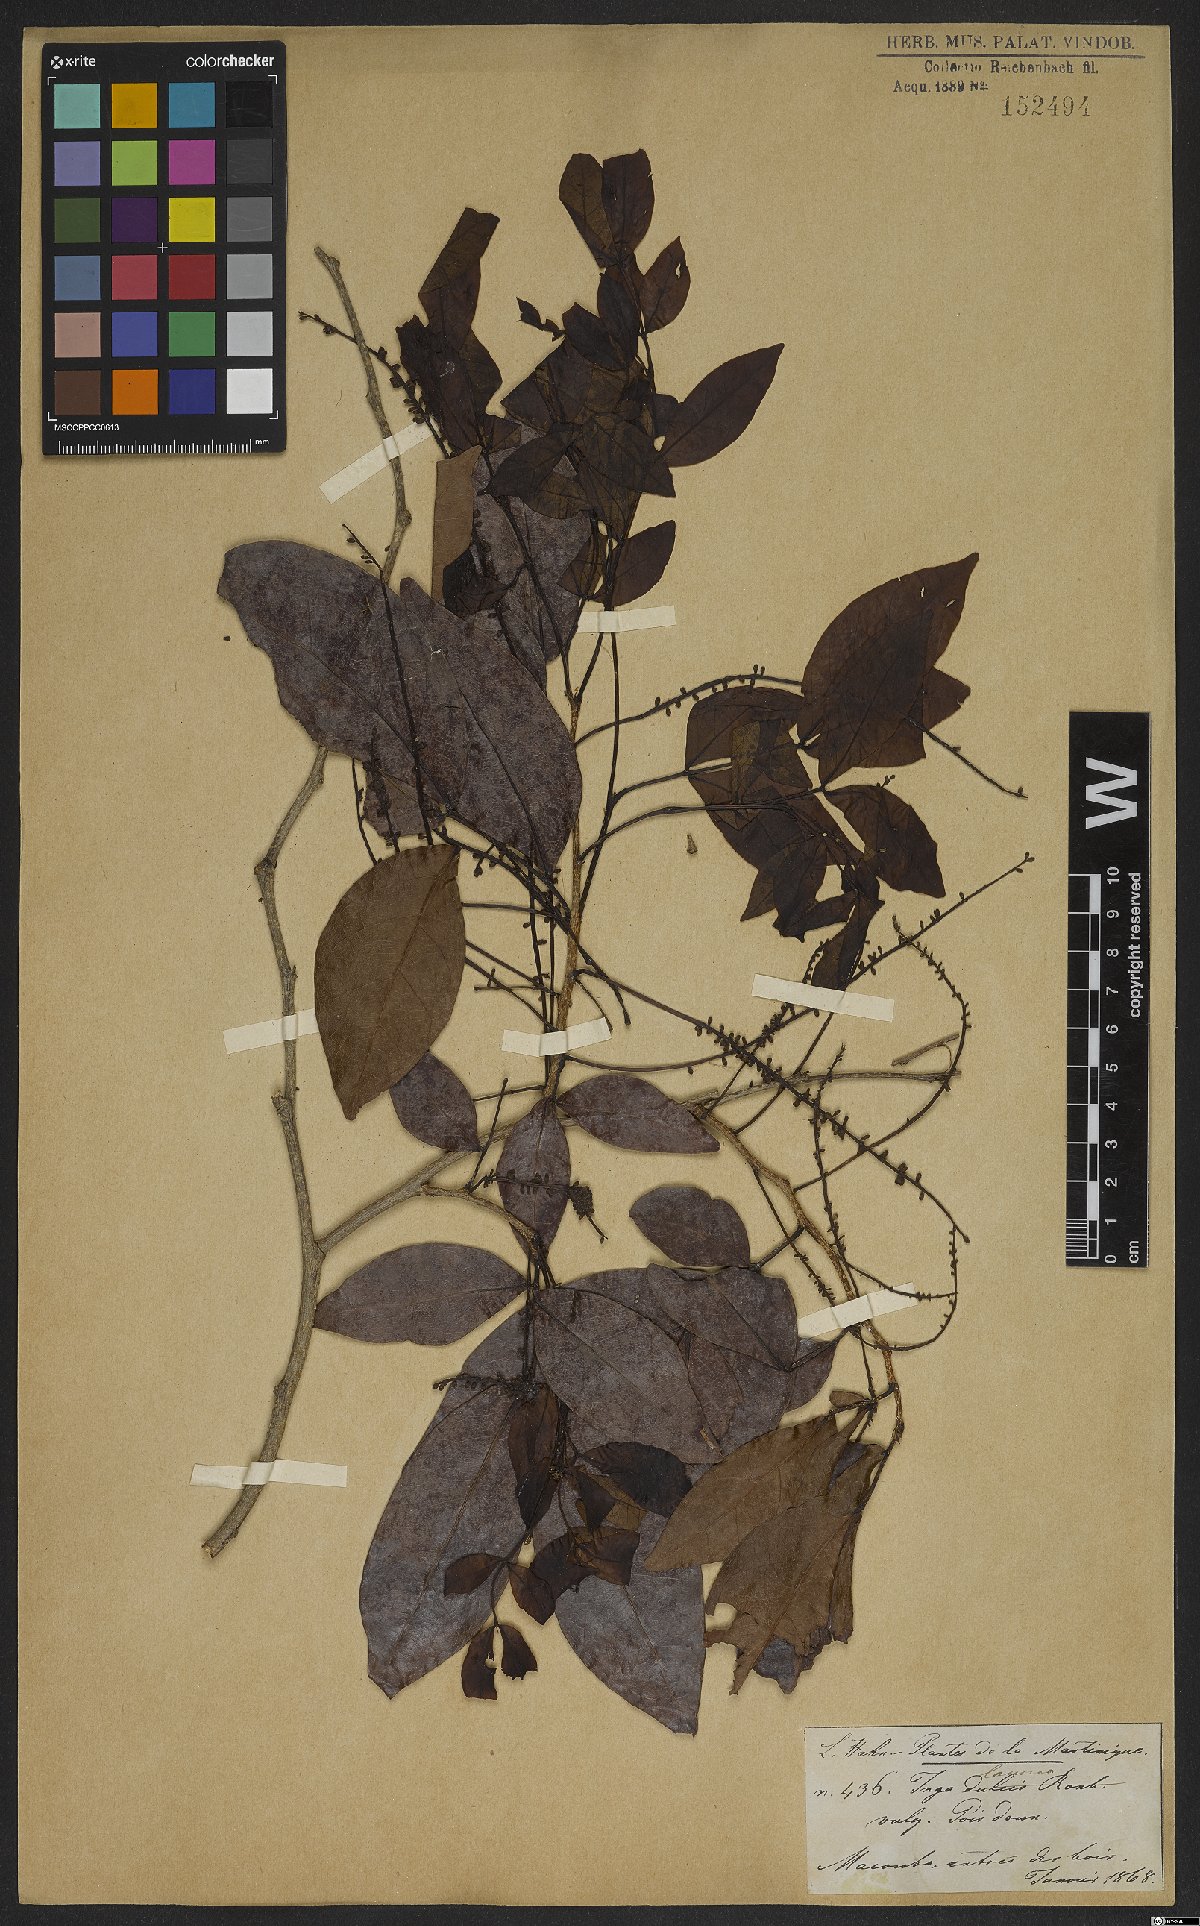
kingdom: Plantae
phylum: Tracheophyta
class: Magnoliopsida
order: Fabales
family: Fabaceae
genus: Inga
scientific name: Inga laurina
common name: Red wood
